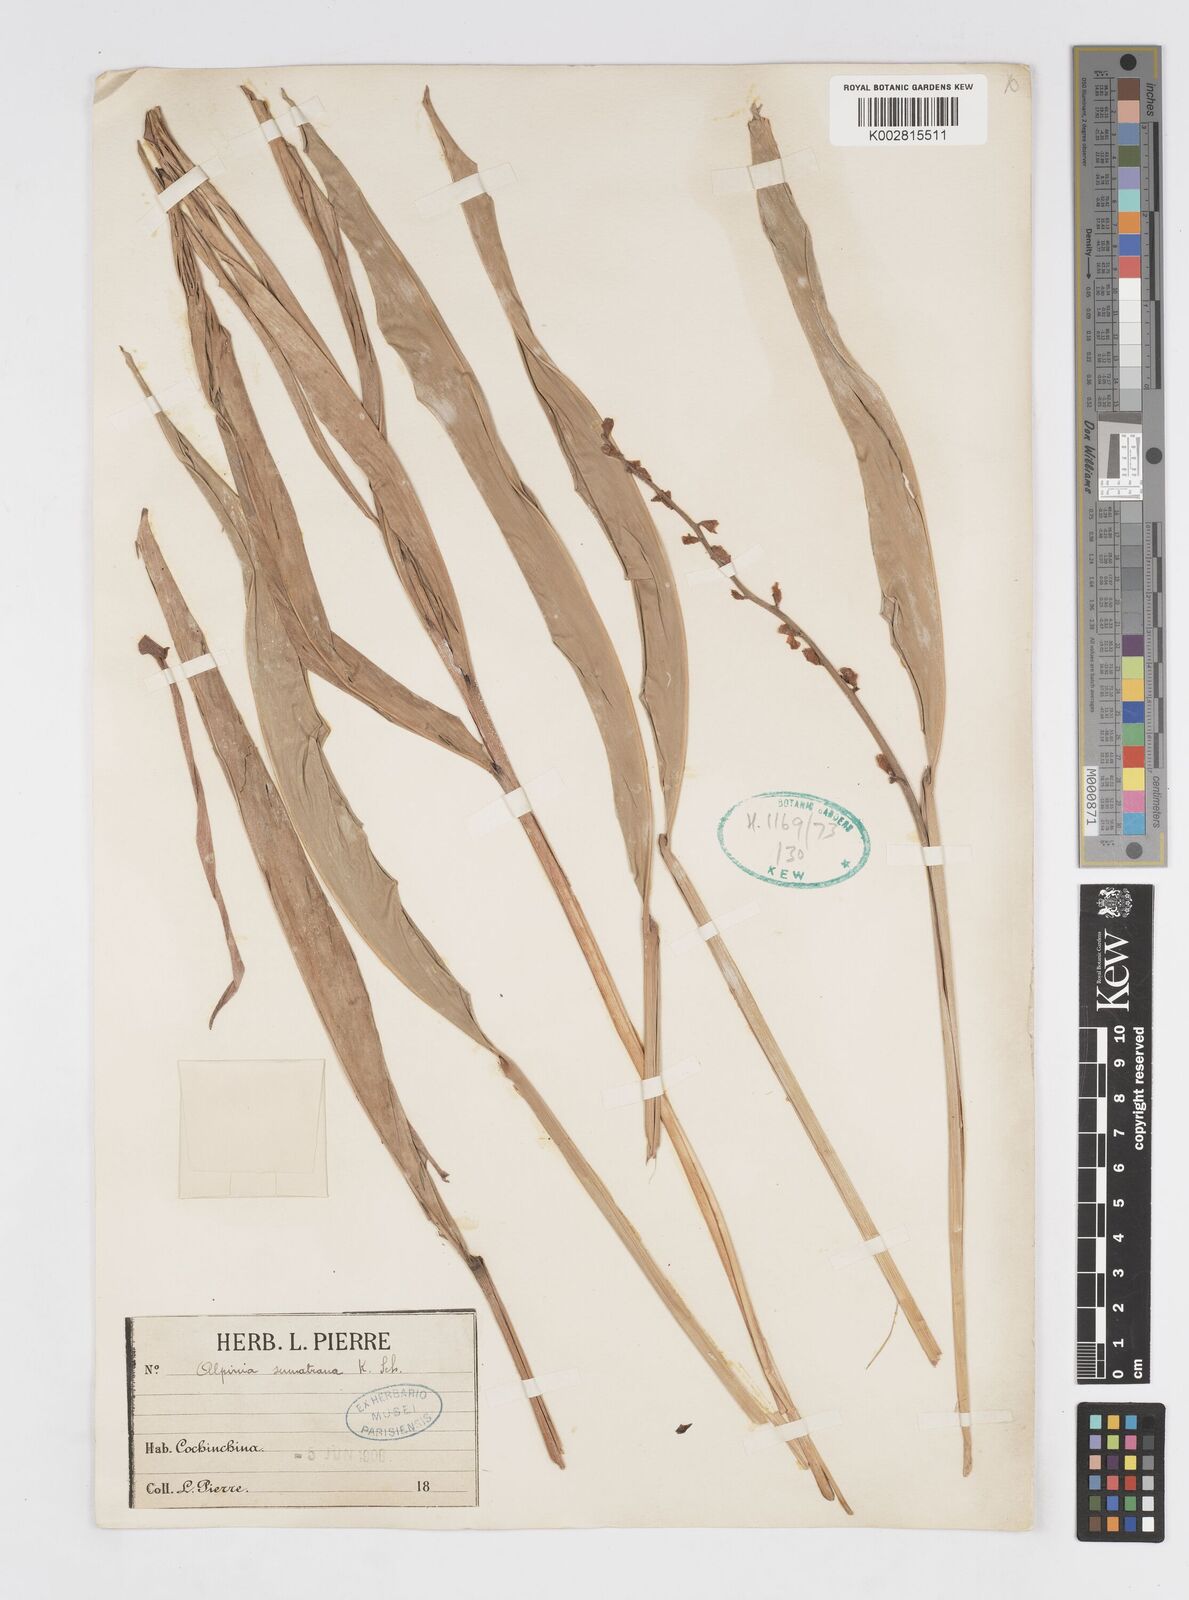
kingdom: Plantae
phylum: Tracheophyta
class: Liliopsida
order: Zingiberales
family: Zingiberaceae
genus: Alpinia
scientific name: Alpinia conchigera
